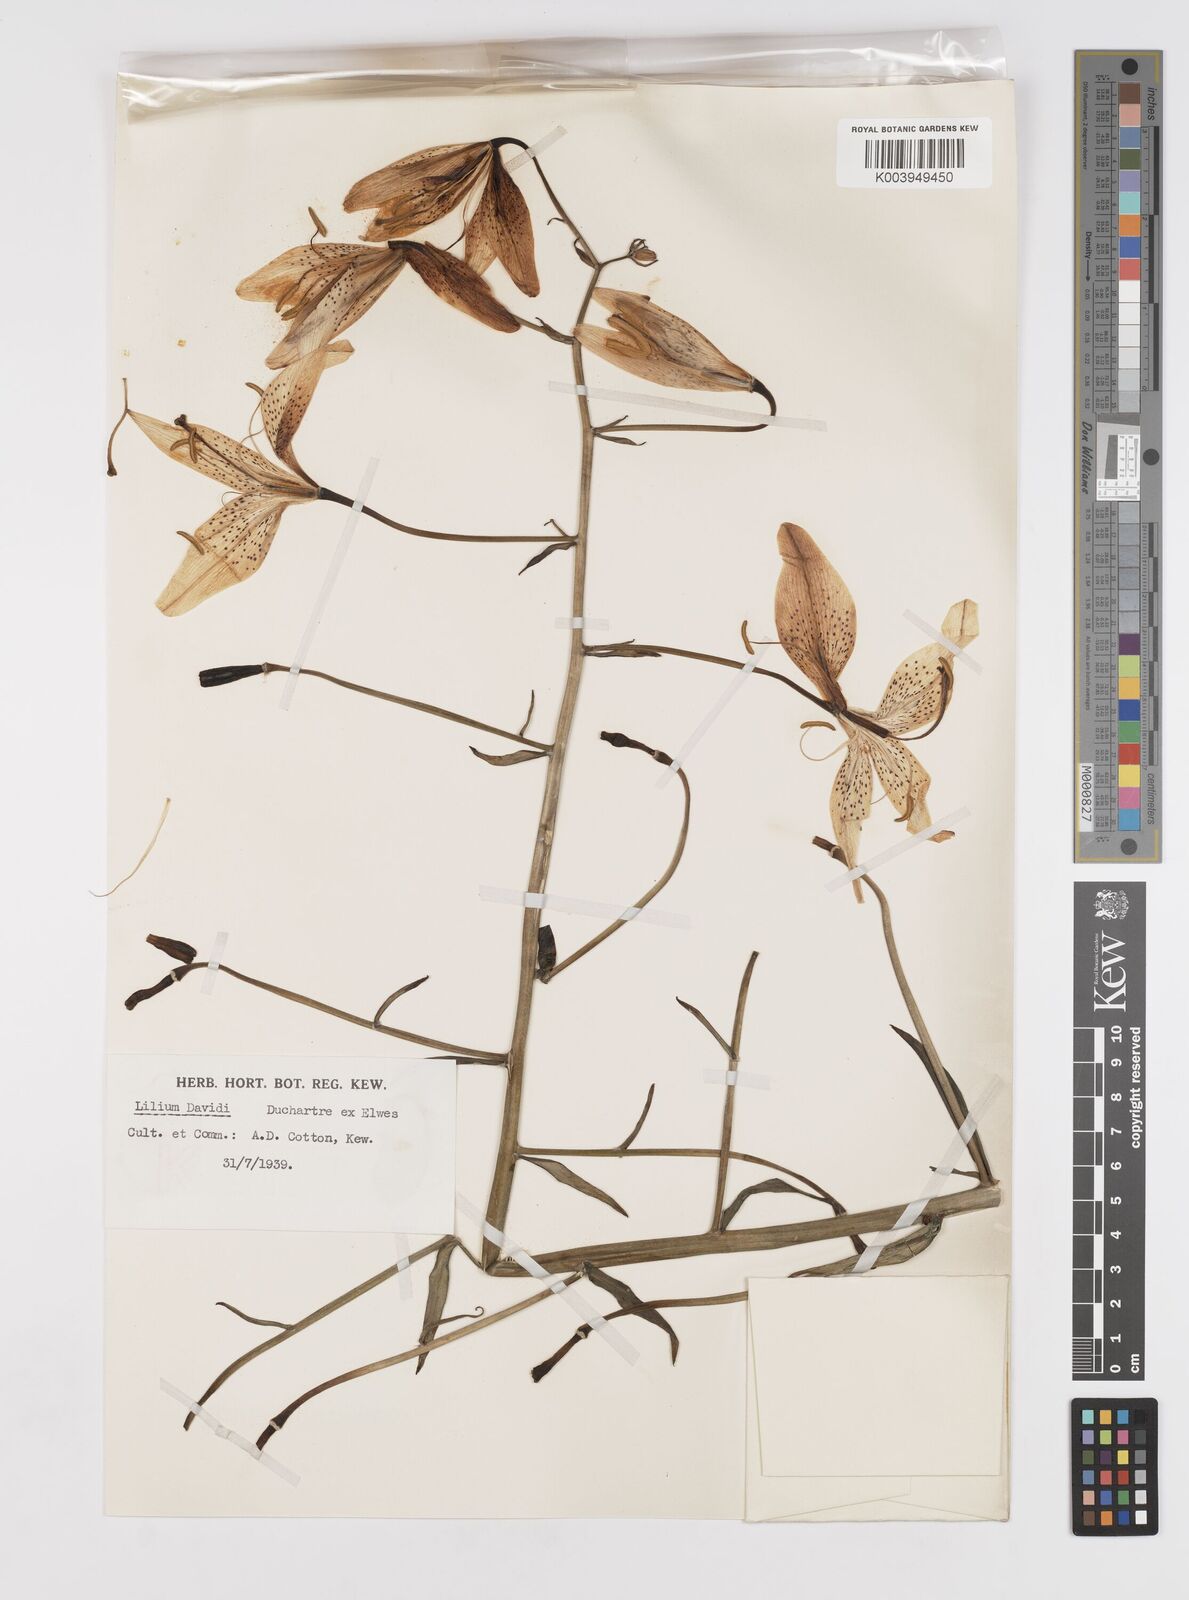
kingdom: Plantae
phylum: Tracheophyta
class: Liliopsida
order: Liliales
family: Liliaceae
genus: Lilium
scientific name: Lilium davidii
